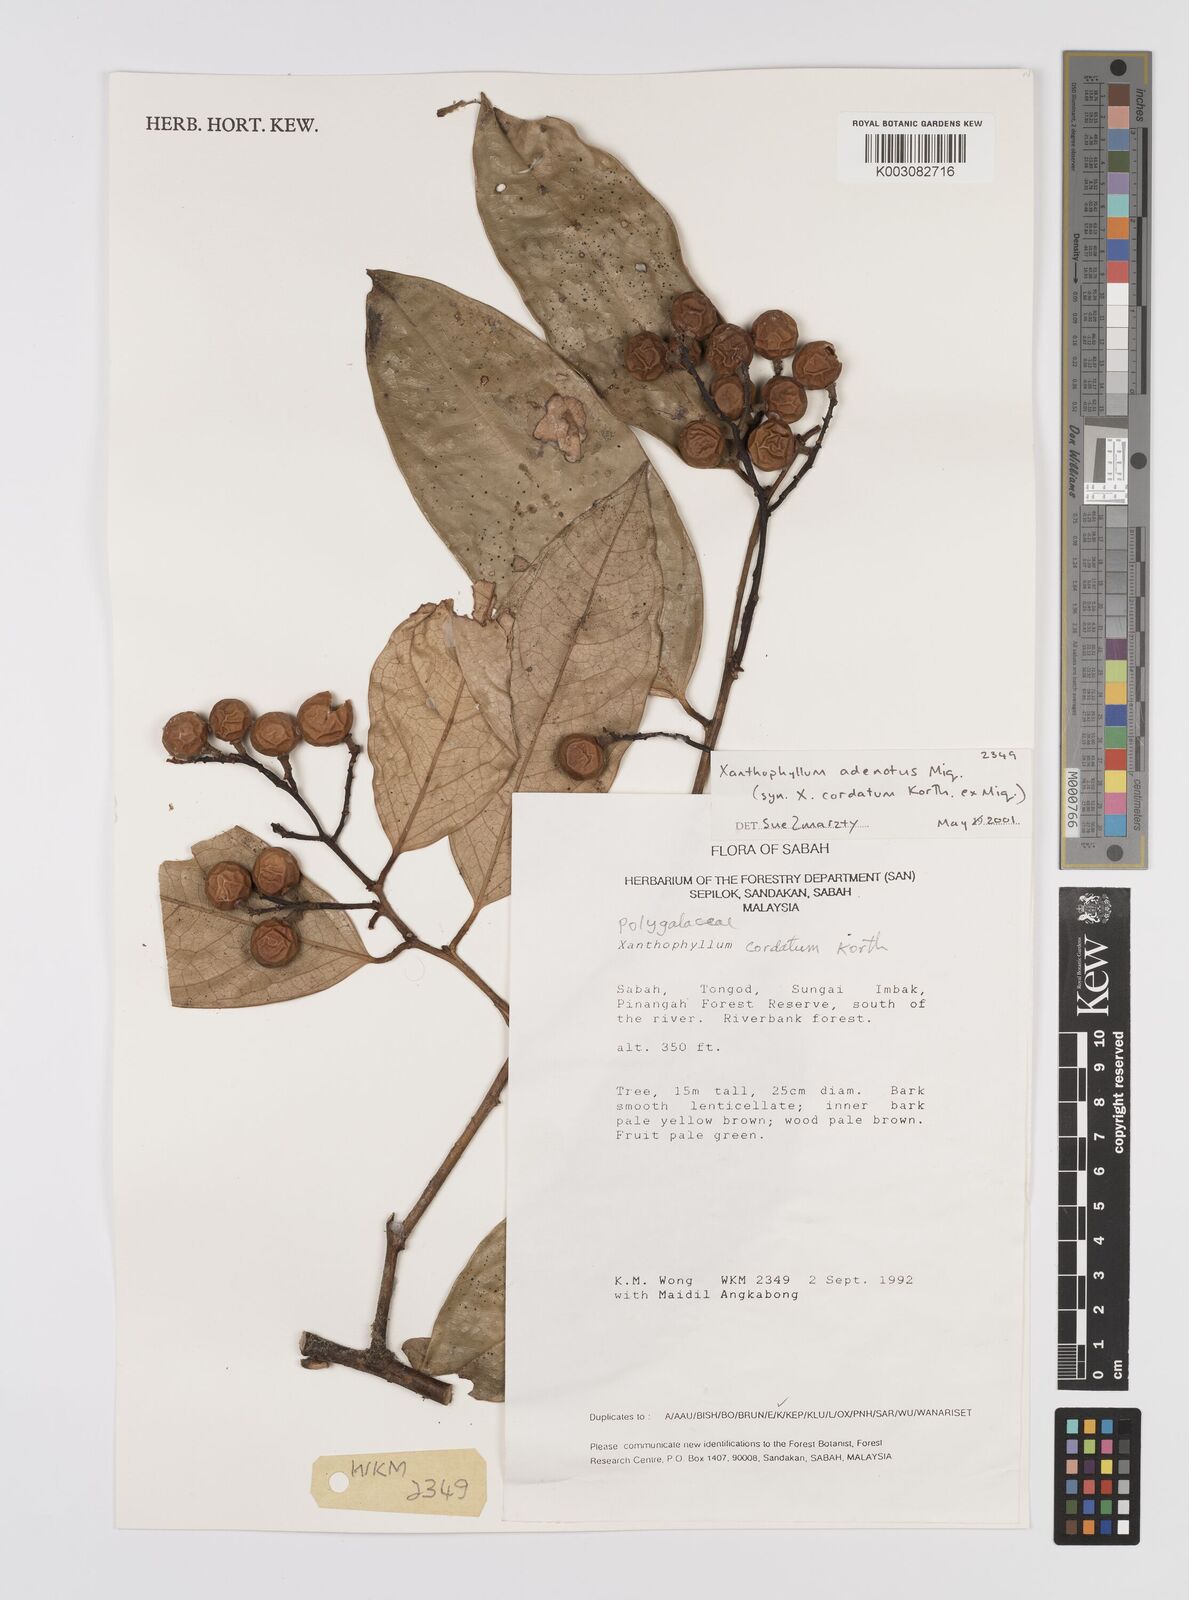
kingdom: Plantae
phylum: Tracheophyta
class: Magnoliopsida
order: Fabales
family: Polygalaceae
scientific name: Polygalaceae
